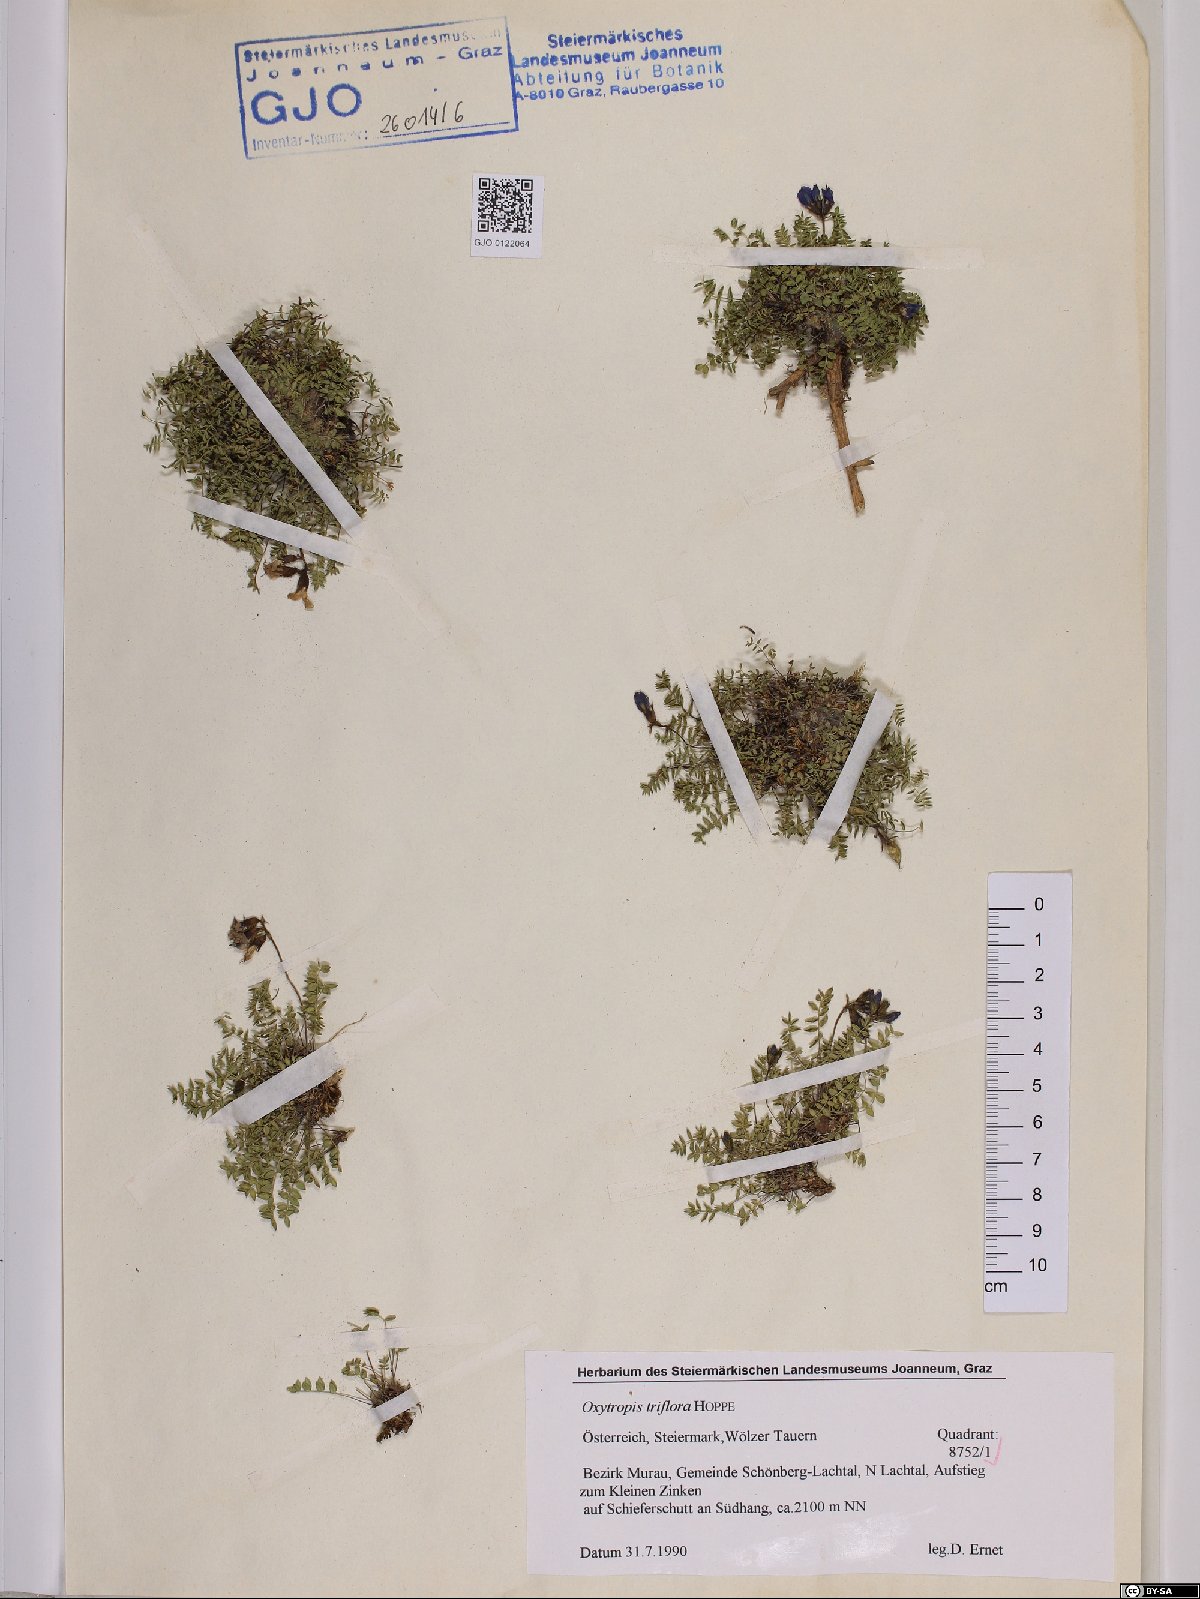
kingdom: Plantae
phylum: Tracheophyta
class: Magnoliopsida
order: Fabales
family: Fabaceae
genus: Oxytropis
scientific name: Oxytropis triflora
